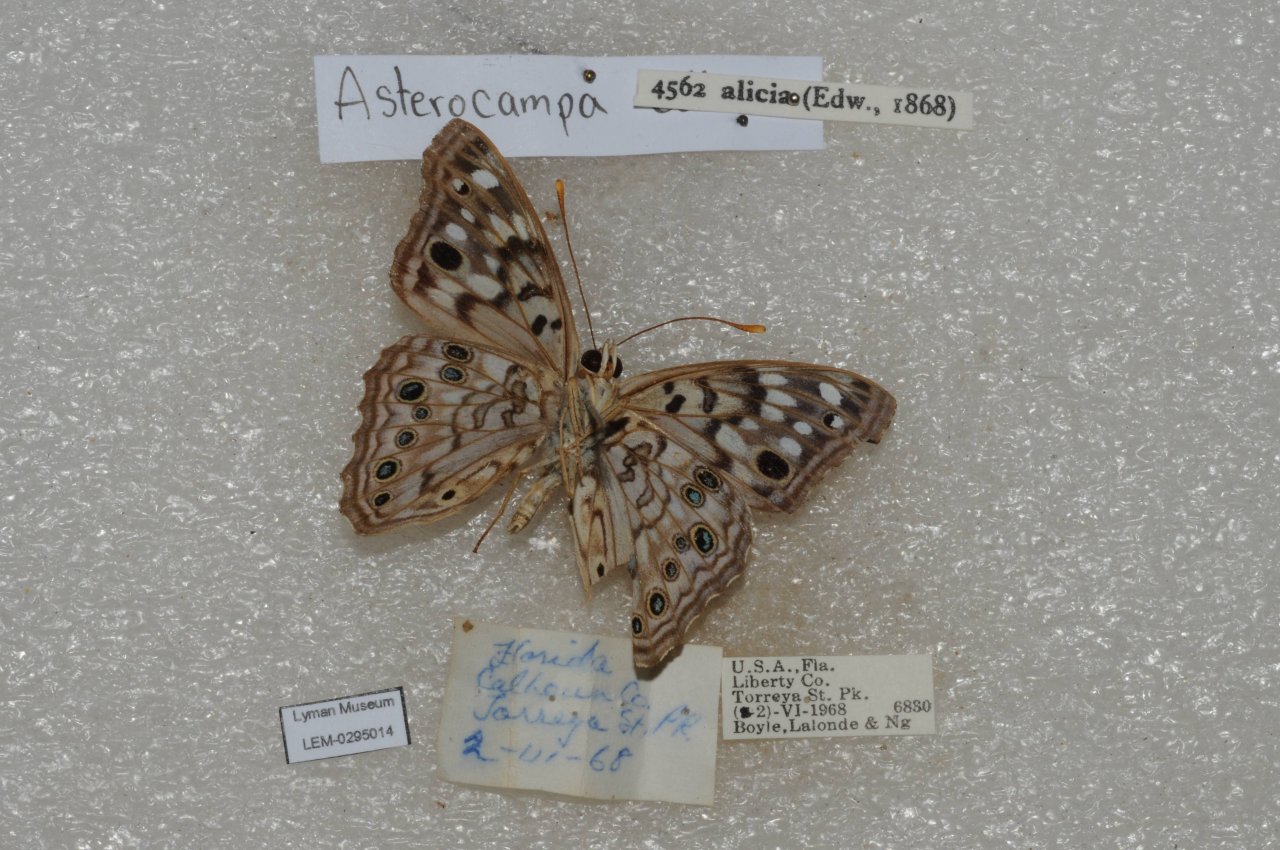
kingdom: Animalia
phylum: Arthropoda
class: Insecta
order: Lepidoptera
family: Nymphalidae
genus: Asterocampa
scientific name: Asterocampa celtis
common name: Hackberry Emperor
